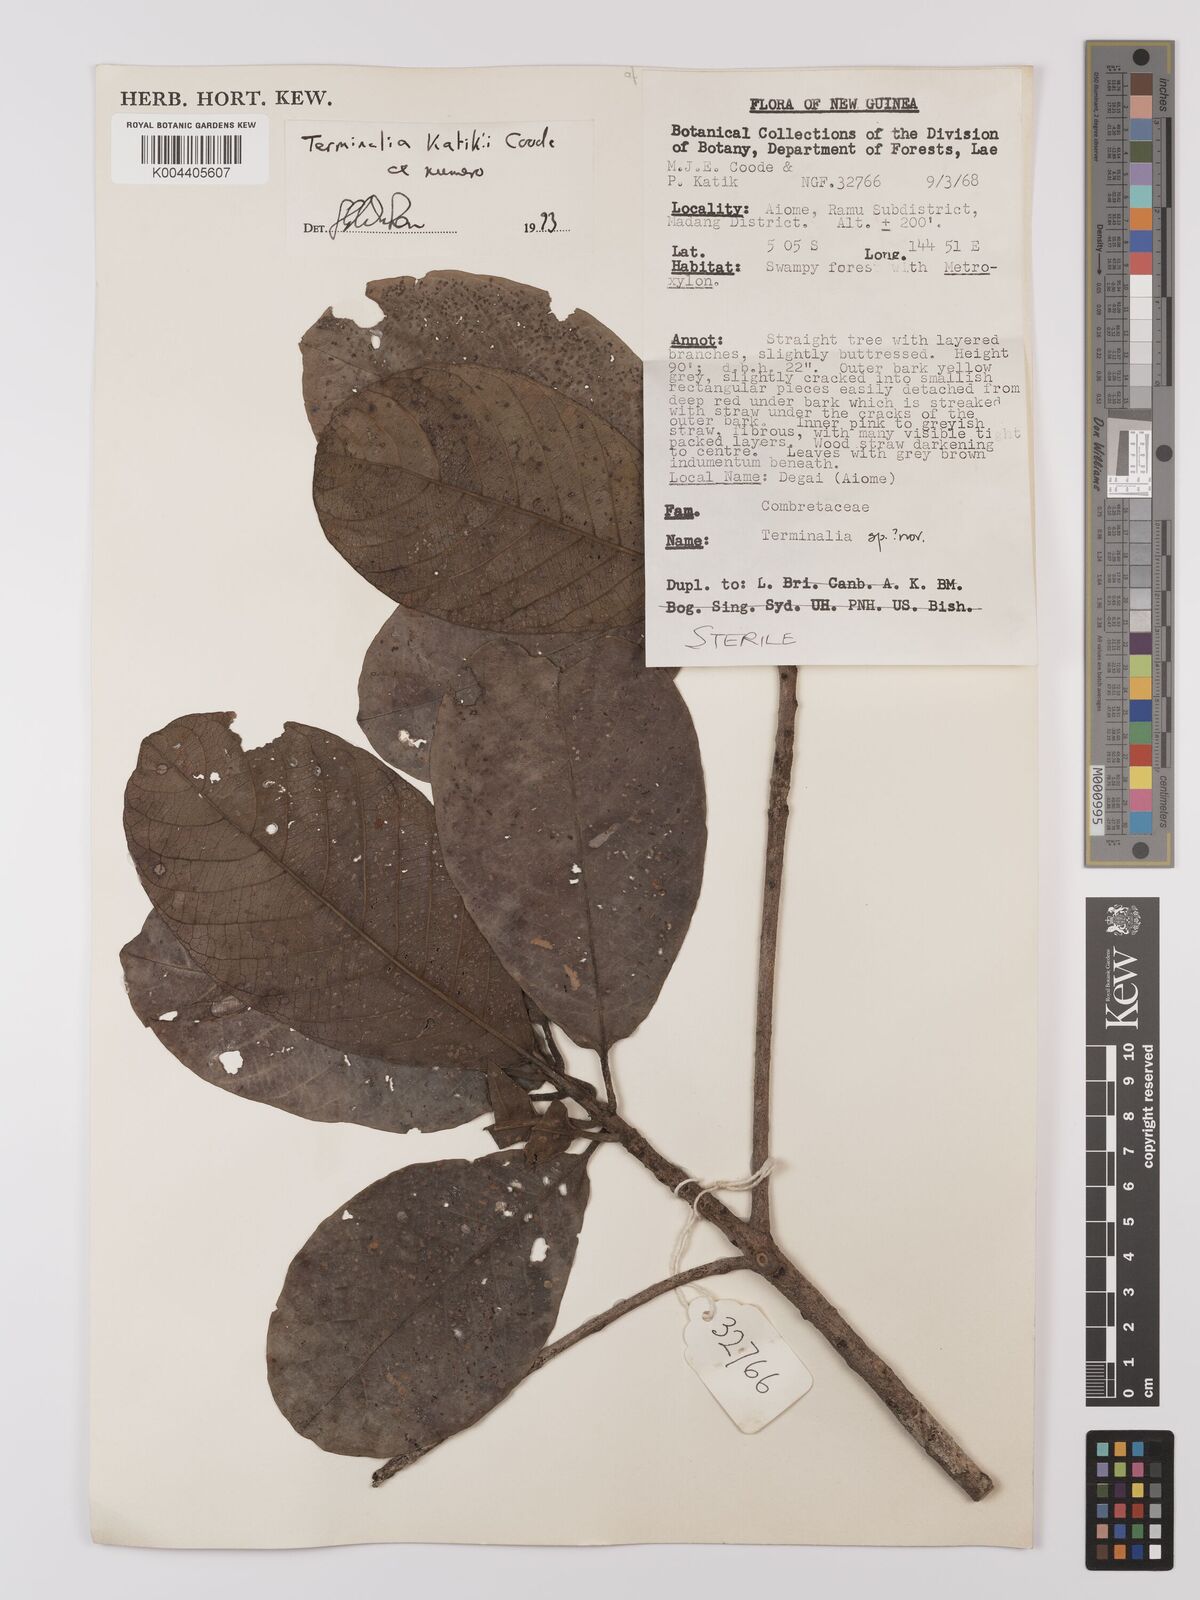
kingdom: Plantae
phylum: Tracheophyta
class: Magnoliopsida
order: Myrtales
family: Combretaceae
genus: Terminalia
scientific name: Terminalia katikii
